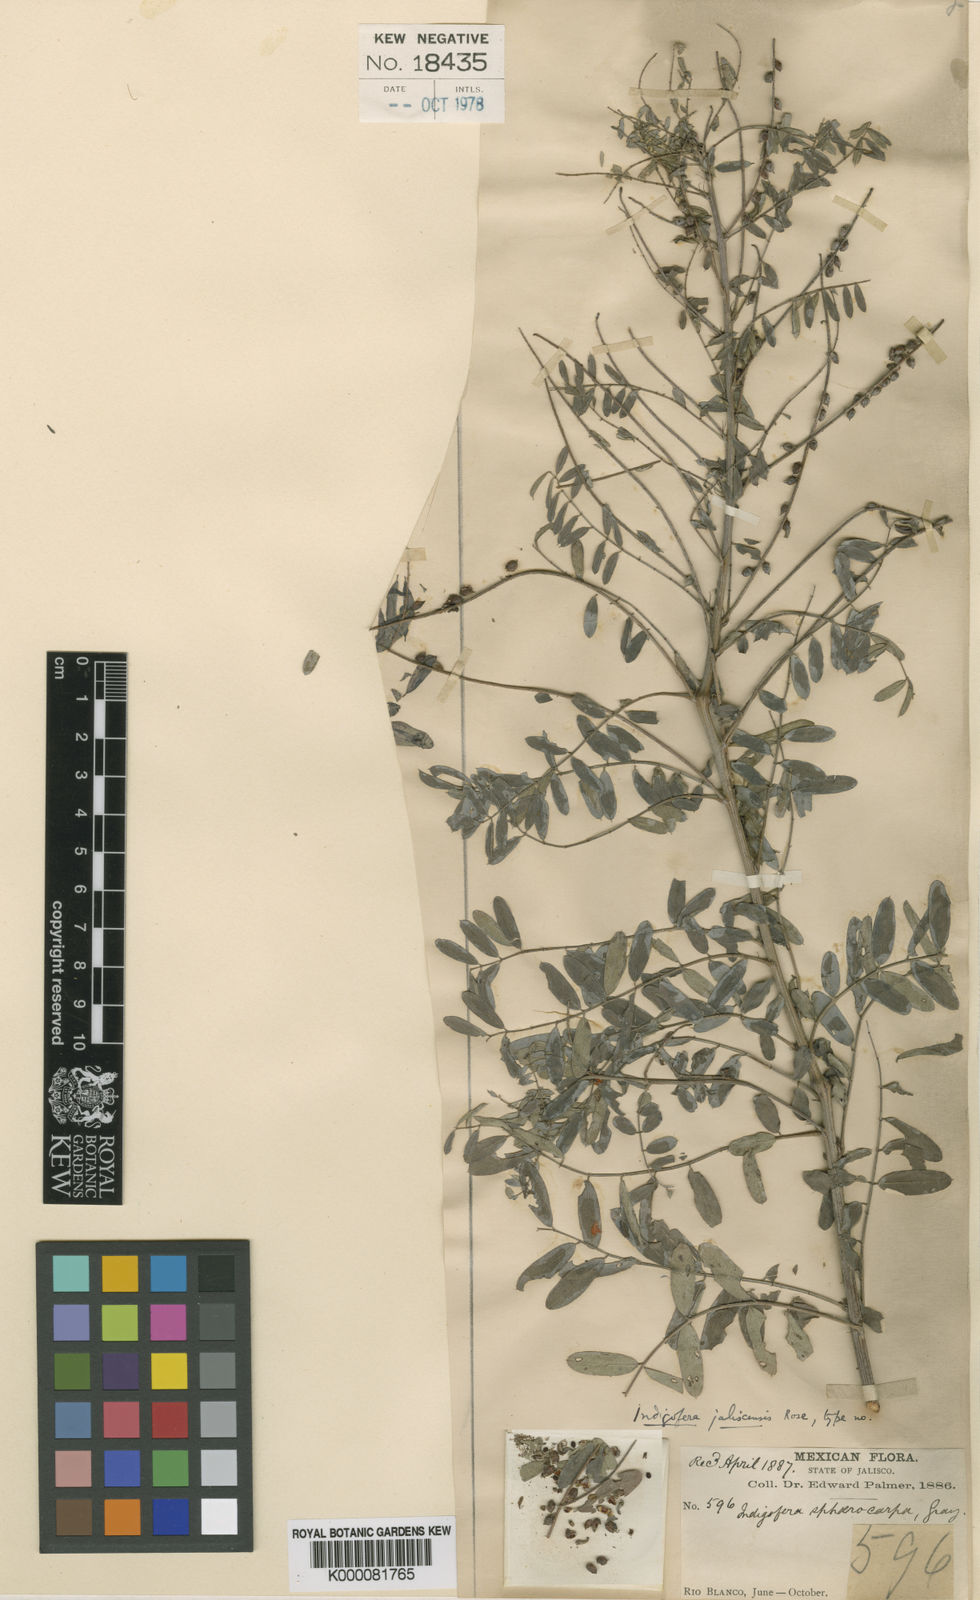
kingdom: Plantae
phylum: Tracheophyta
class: Magnoliopsida
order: Fabales
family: Fabaceae
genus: Indigofera
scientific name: Indigofera sphaerocarpa
